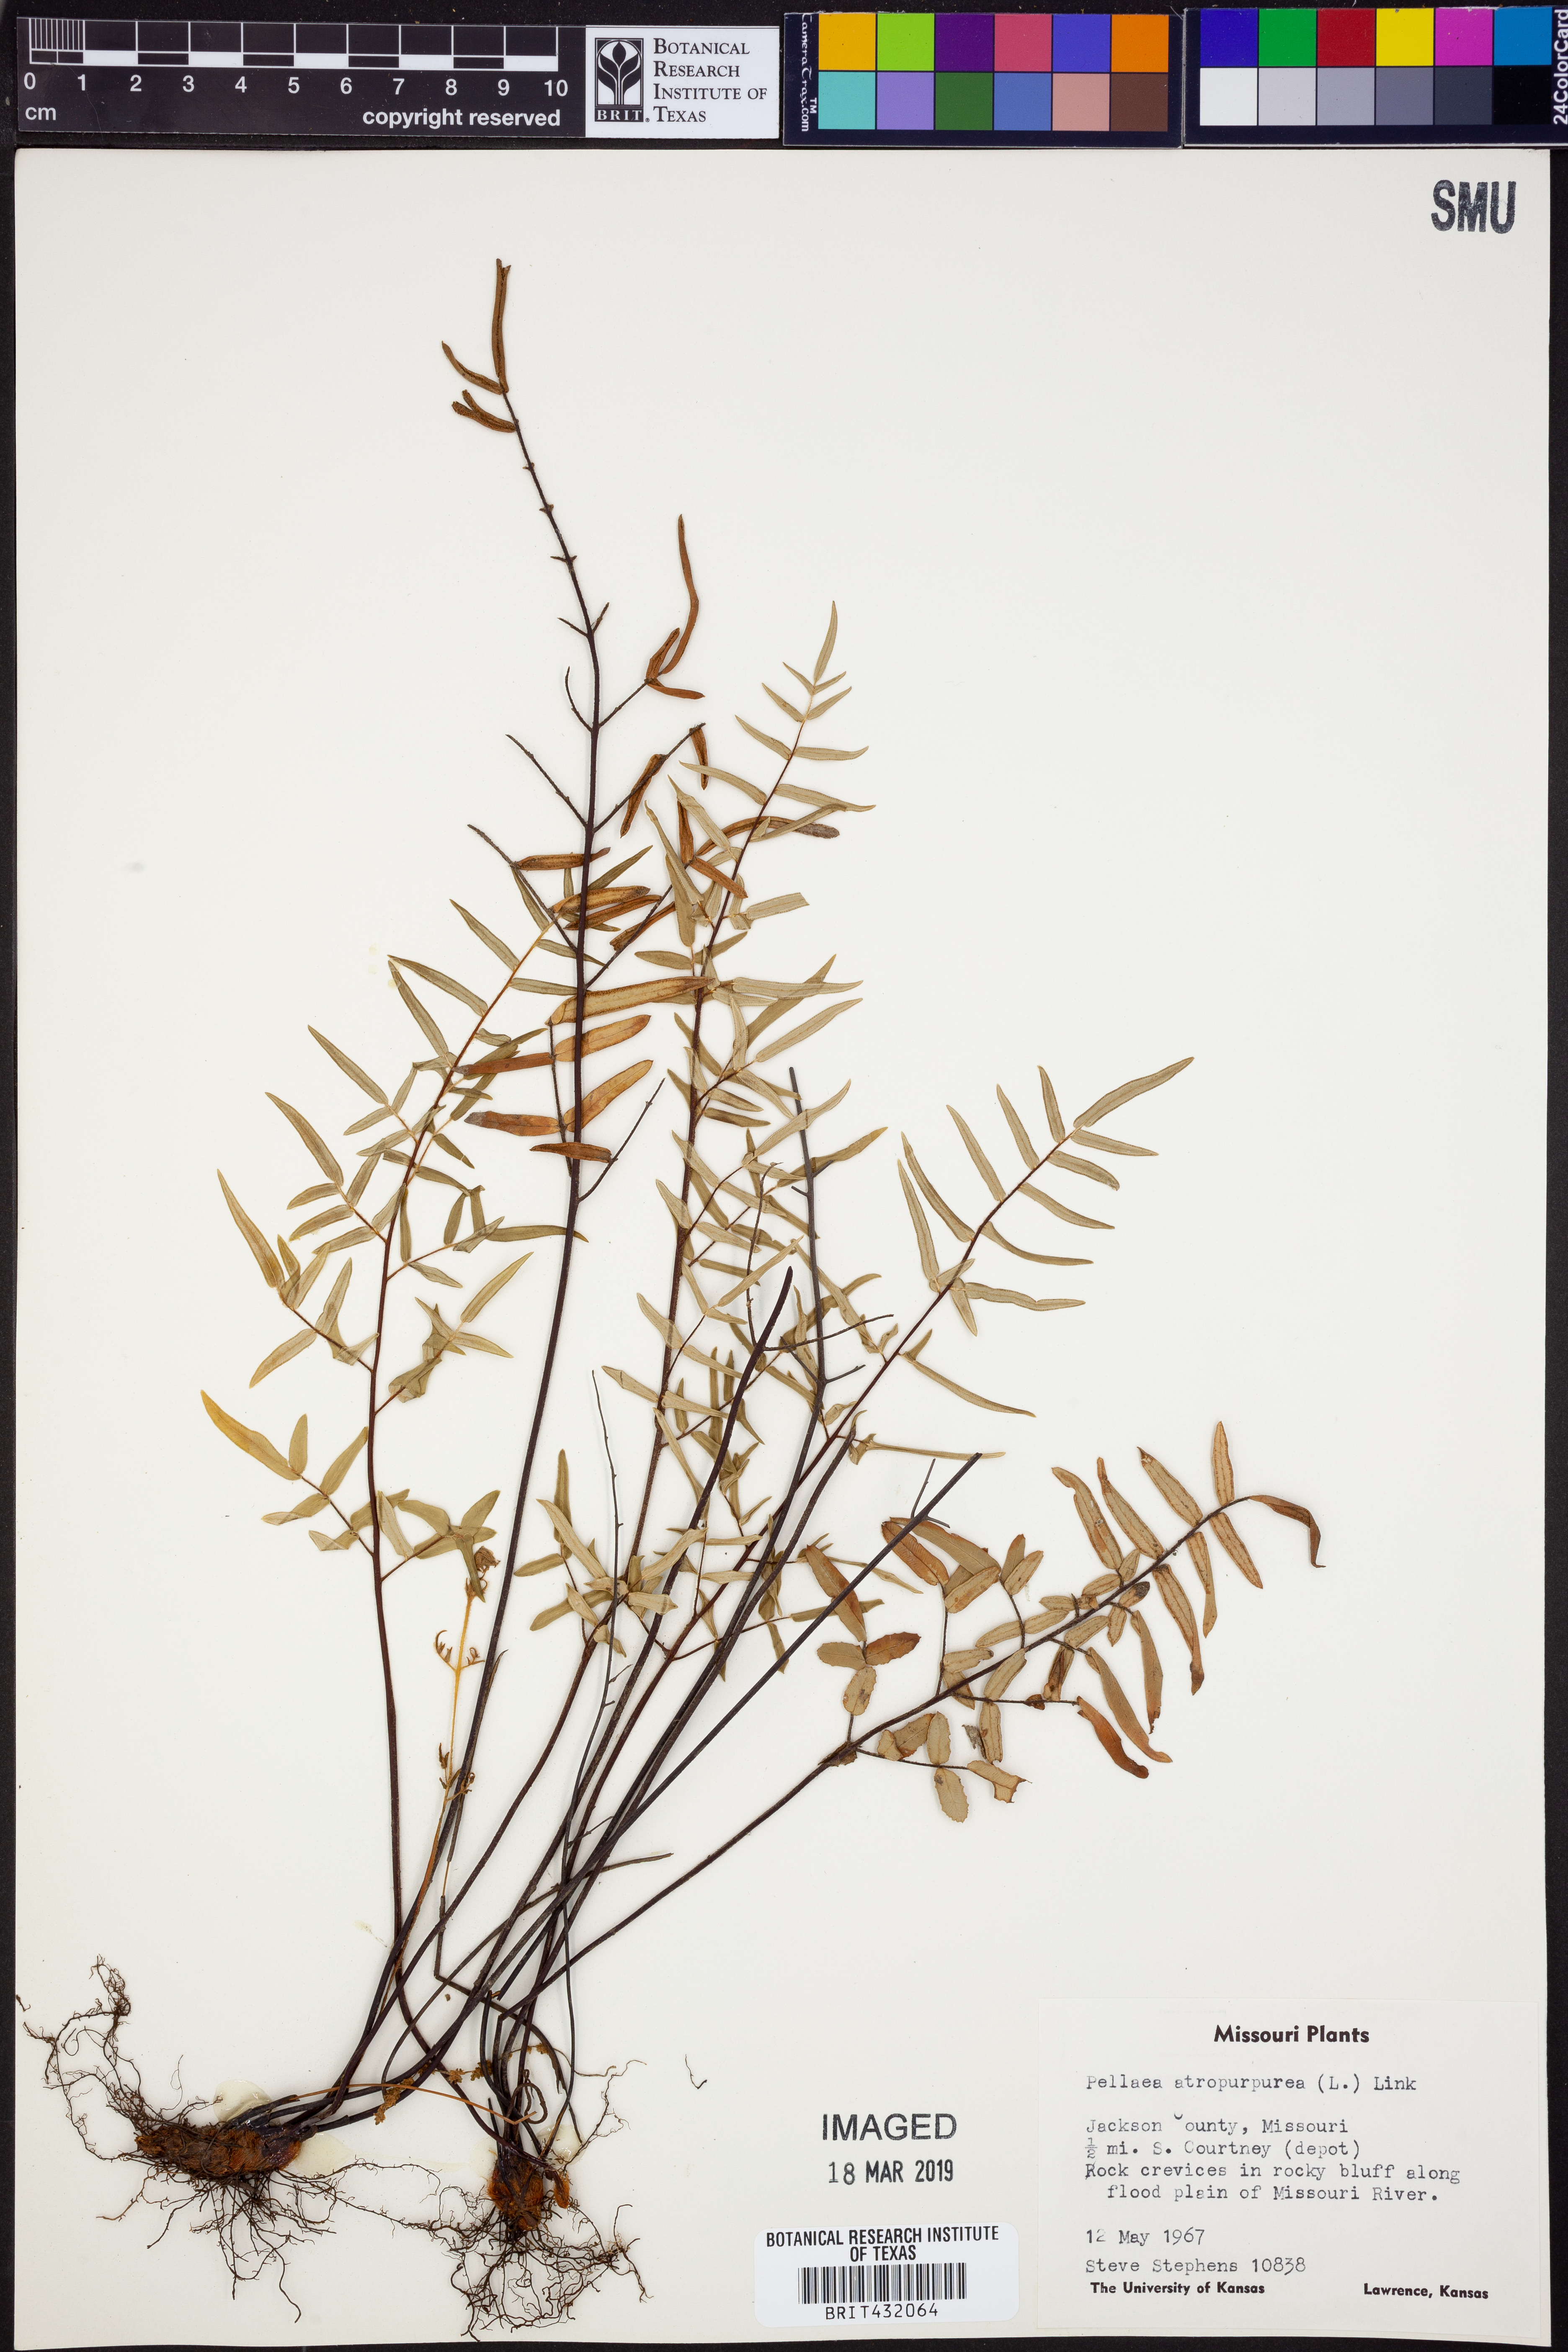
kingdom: Plantae
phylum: Tracheophyta
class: Polypodiopsida
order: Polypodiales
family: Pteridaceae
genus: Pellaea
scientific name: Pellaea atropurpurea
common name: Hairy cliffbrake
